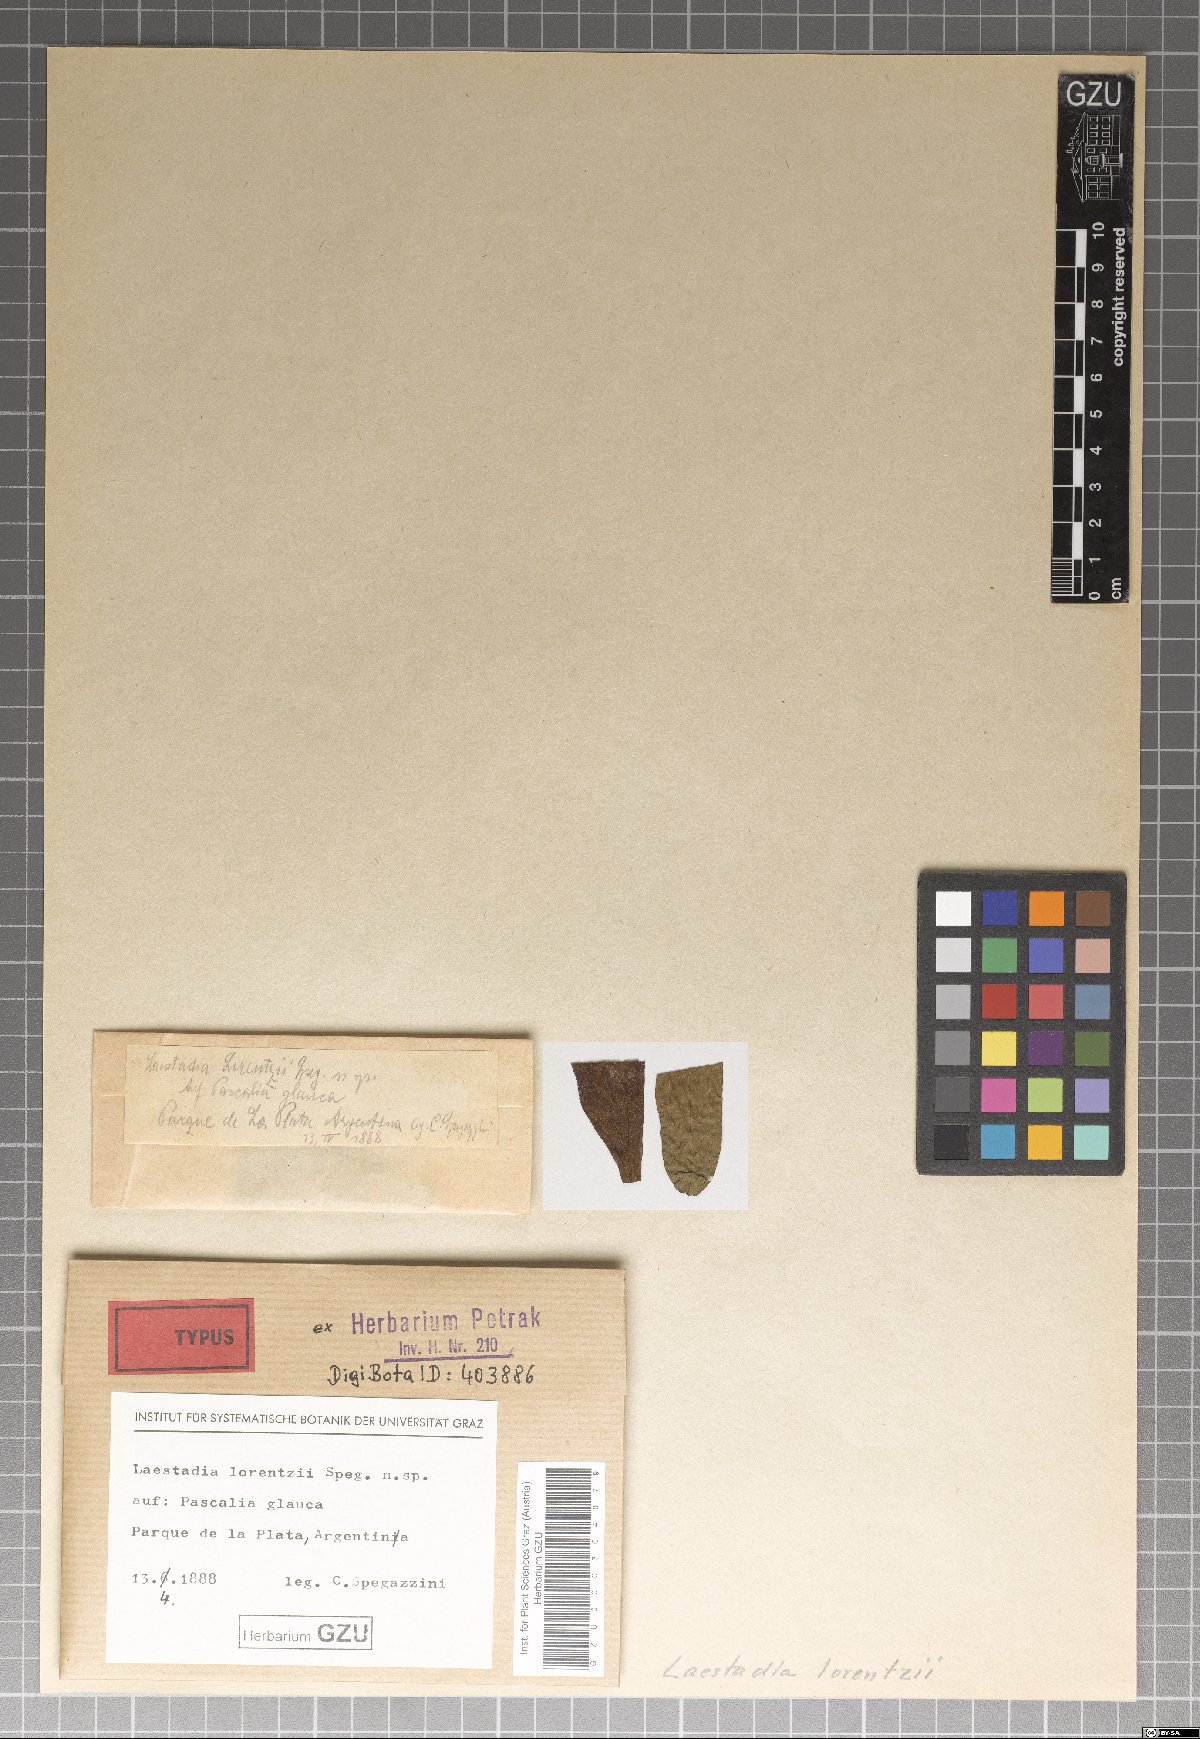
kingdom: Fungi
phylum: Ascomycota
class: Sordariomycetes
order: Diaporthales
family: Gnomoniaceae
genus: Laestadia
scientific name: Laestadia
